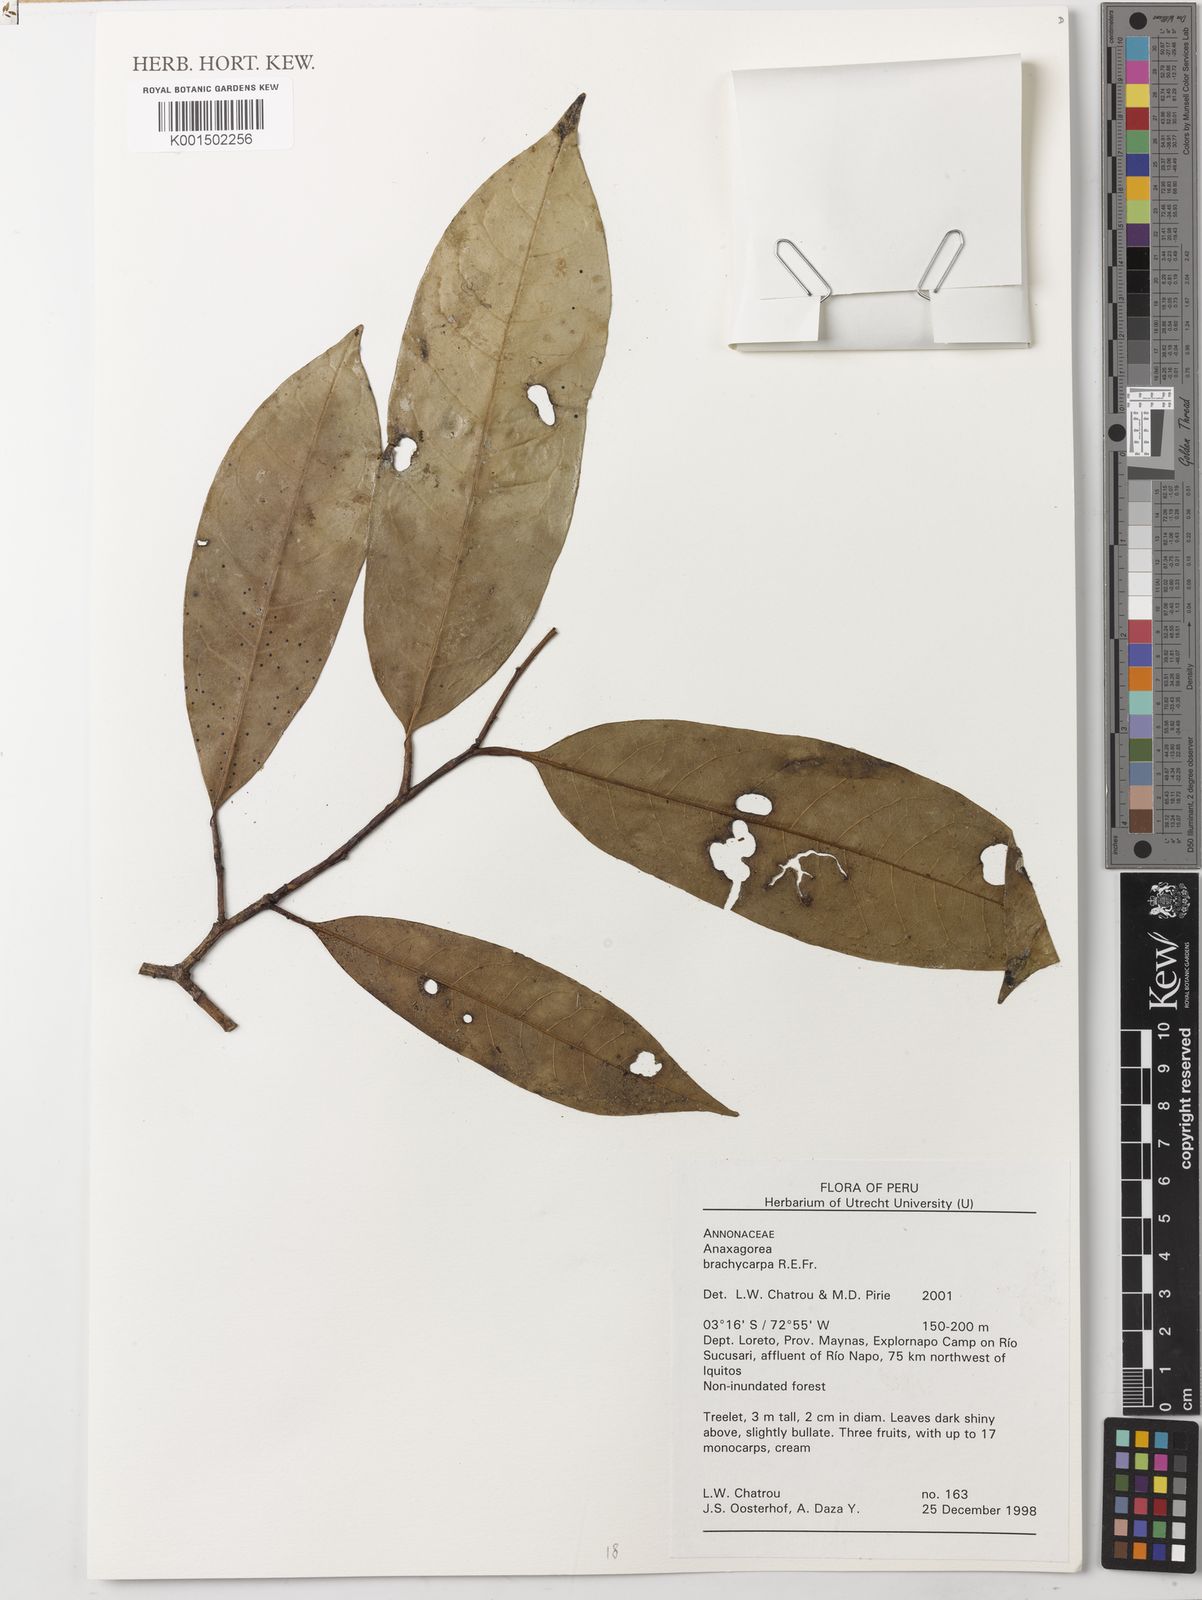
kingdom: Plantae
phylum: Tracheophyta
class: Magnoliopsida
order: Magnoliales
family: Annonaceae
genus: Anaxagorea
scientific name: Anaxagorea brachycarpa
